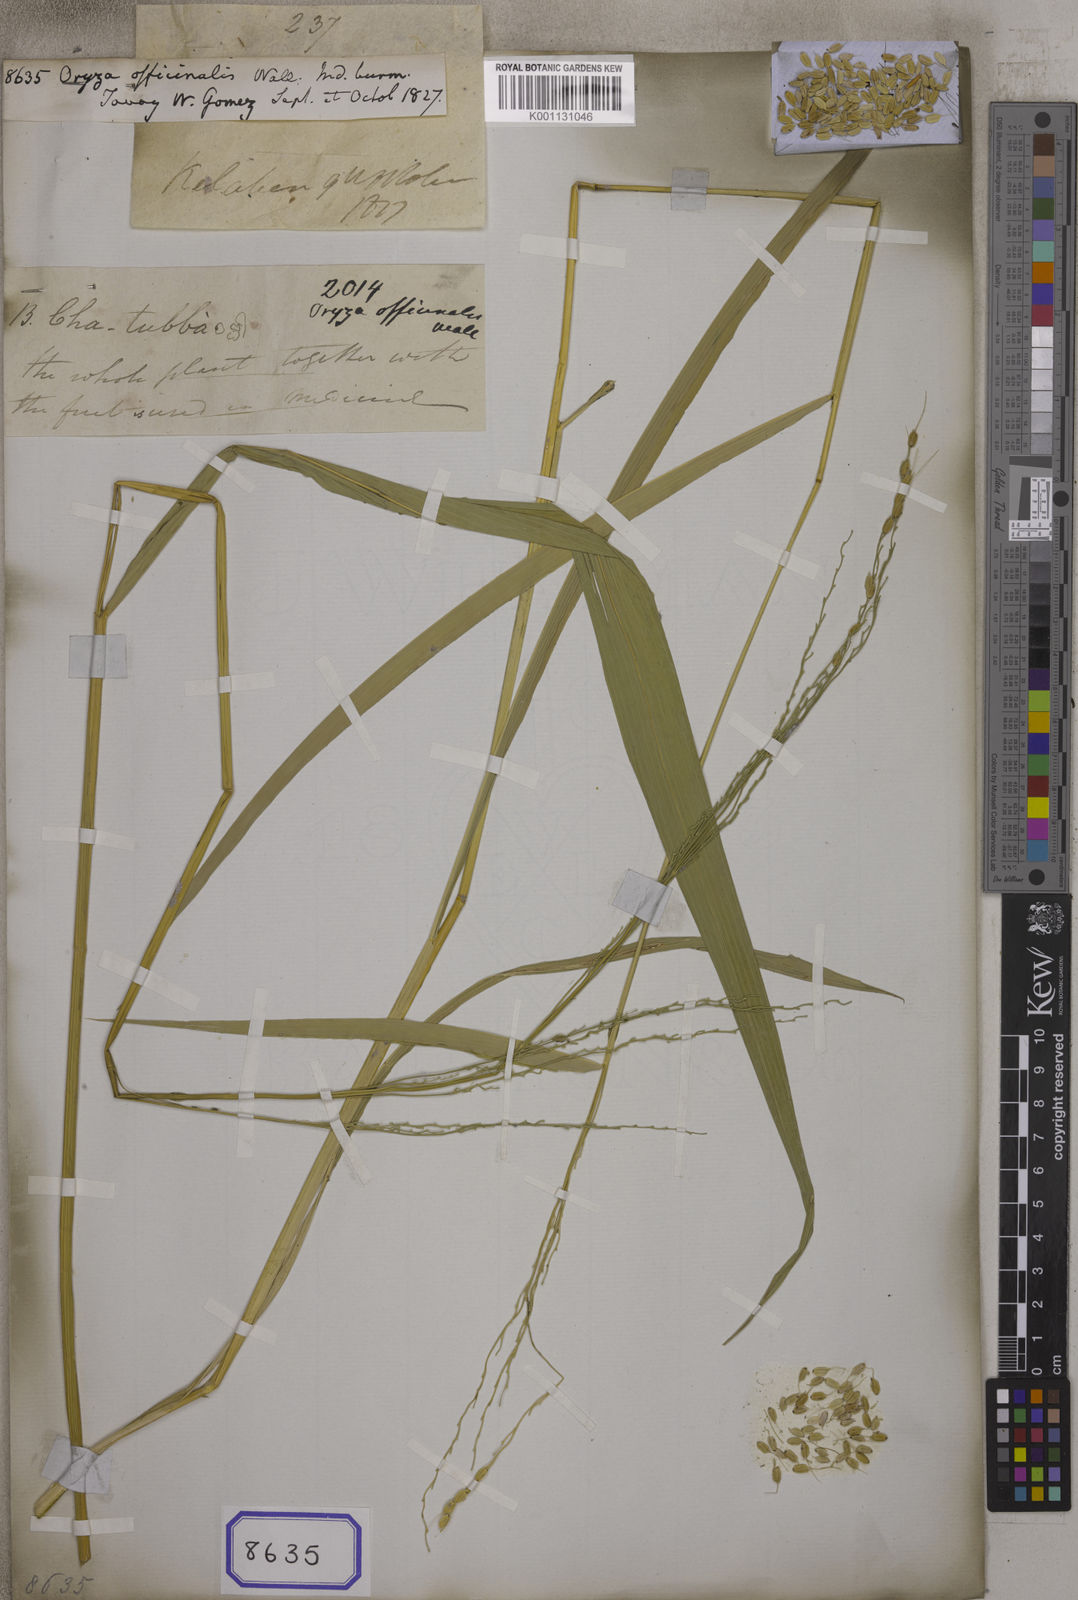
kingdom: Plantae
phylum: Tracheophyta
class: Liliopsida
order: Poales
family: Poaceae
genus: Oryza
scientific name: Oryza
